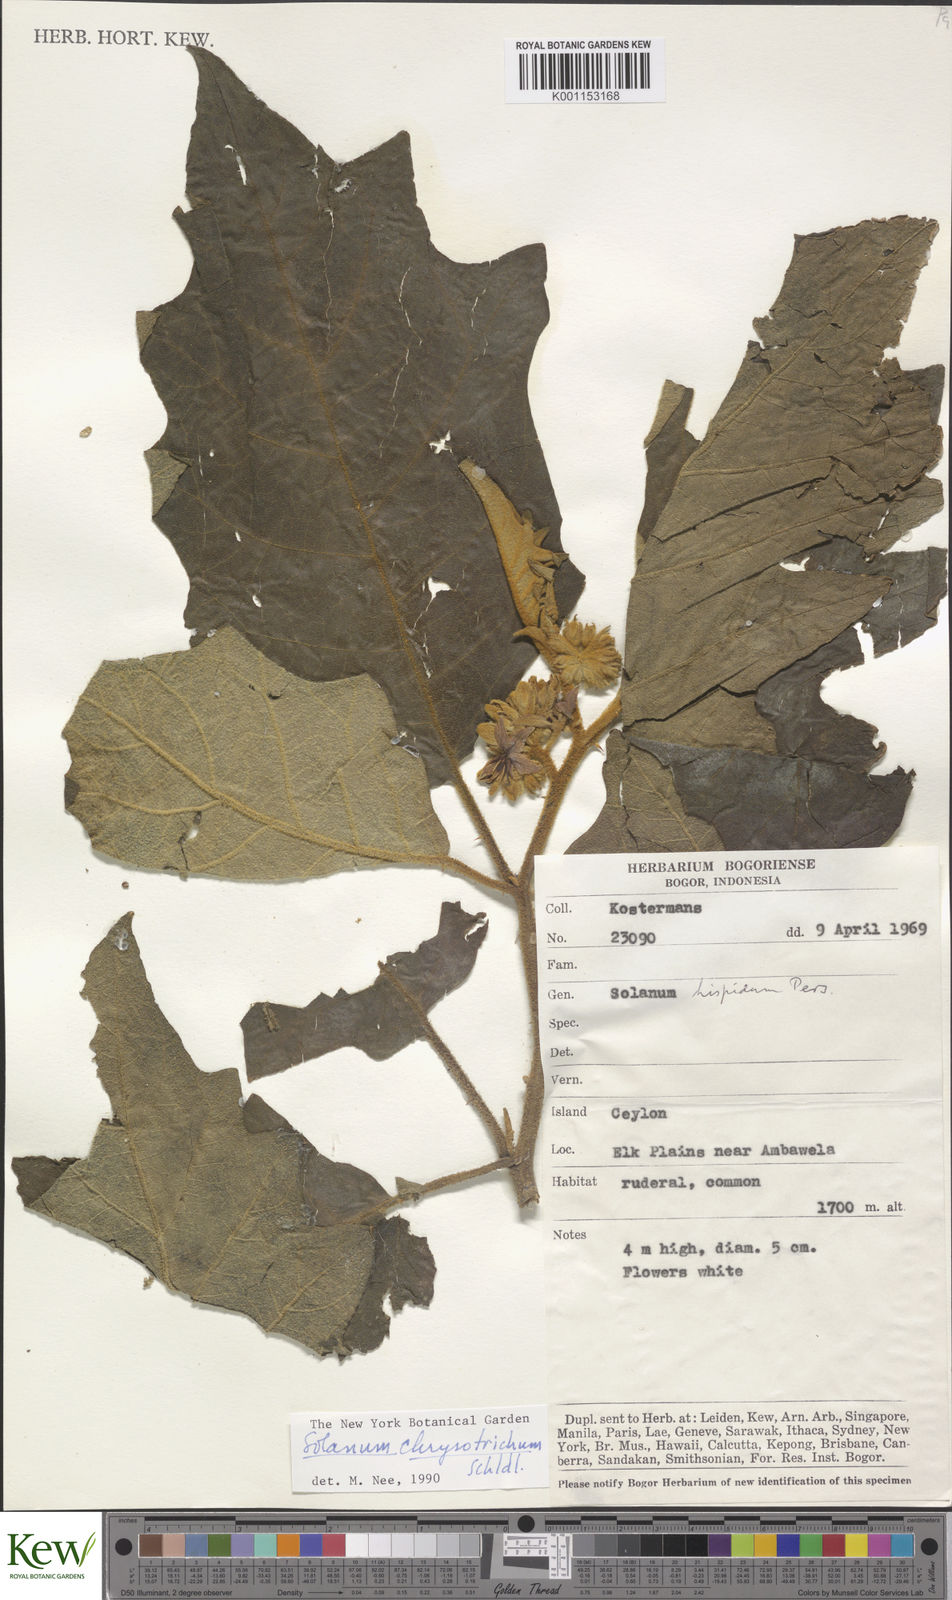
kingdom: Plantae
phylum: Tracheophyta
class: Magnoliopsida
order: Solanales
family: Solanaceae
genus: Solanum
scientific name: Solanum asperolanatum
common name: Devil's-fig
